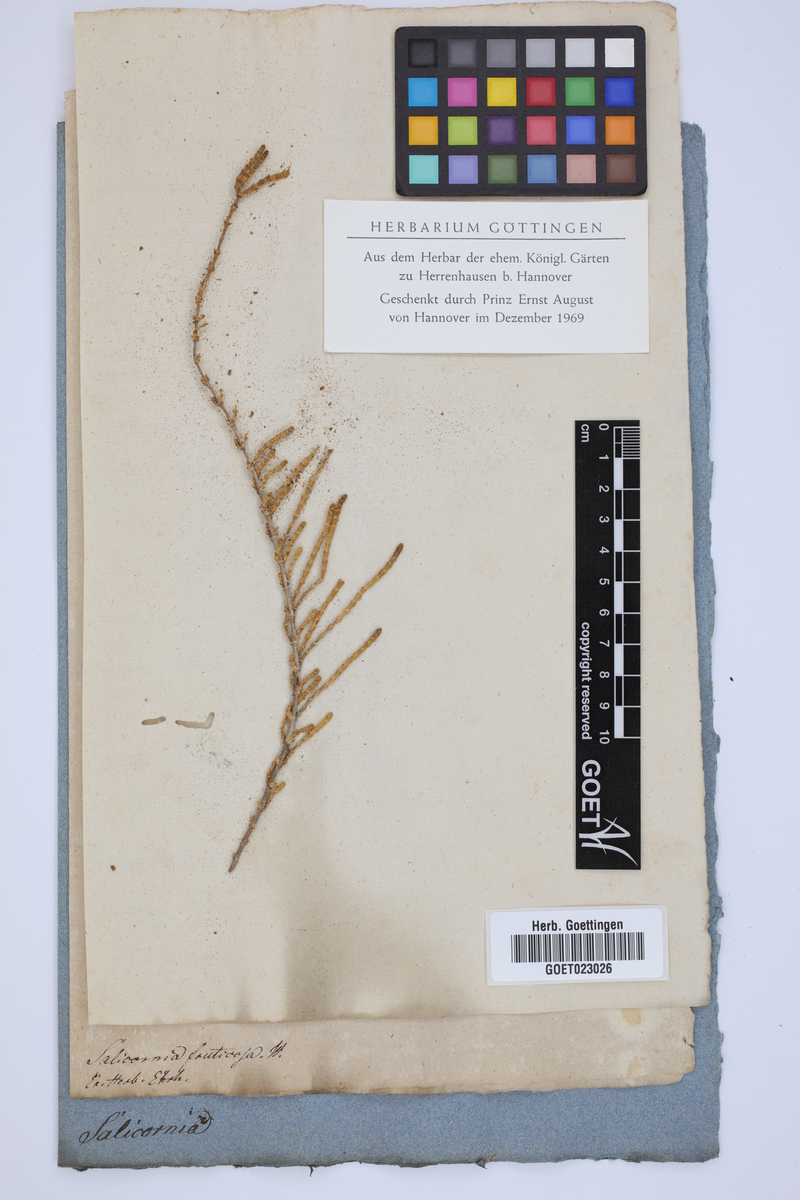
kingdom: Plantae
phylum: Tracheophyta
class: Magnoliopsida
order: Caryophyllales
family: Amaranthaceae
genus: Salicornia
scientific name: Salicornia fruticosa
